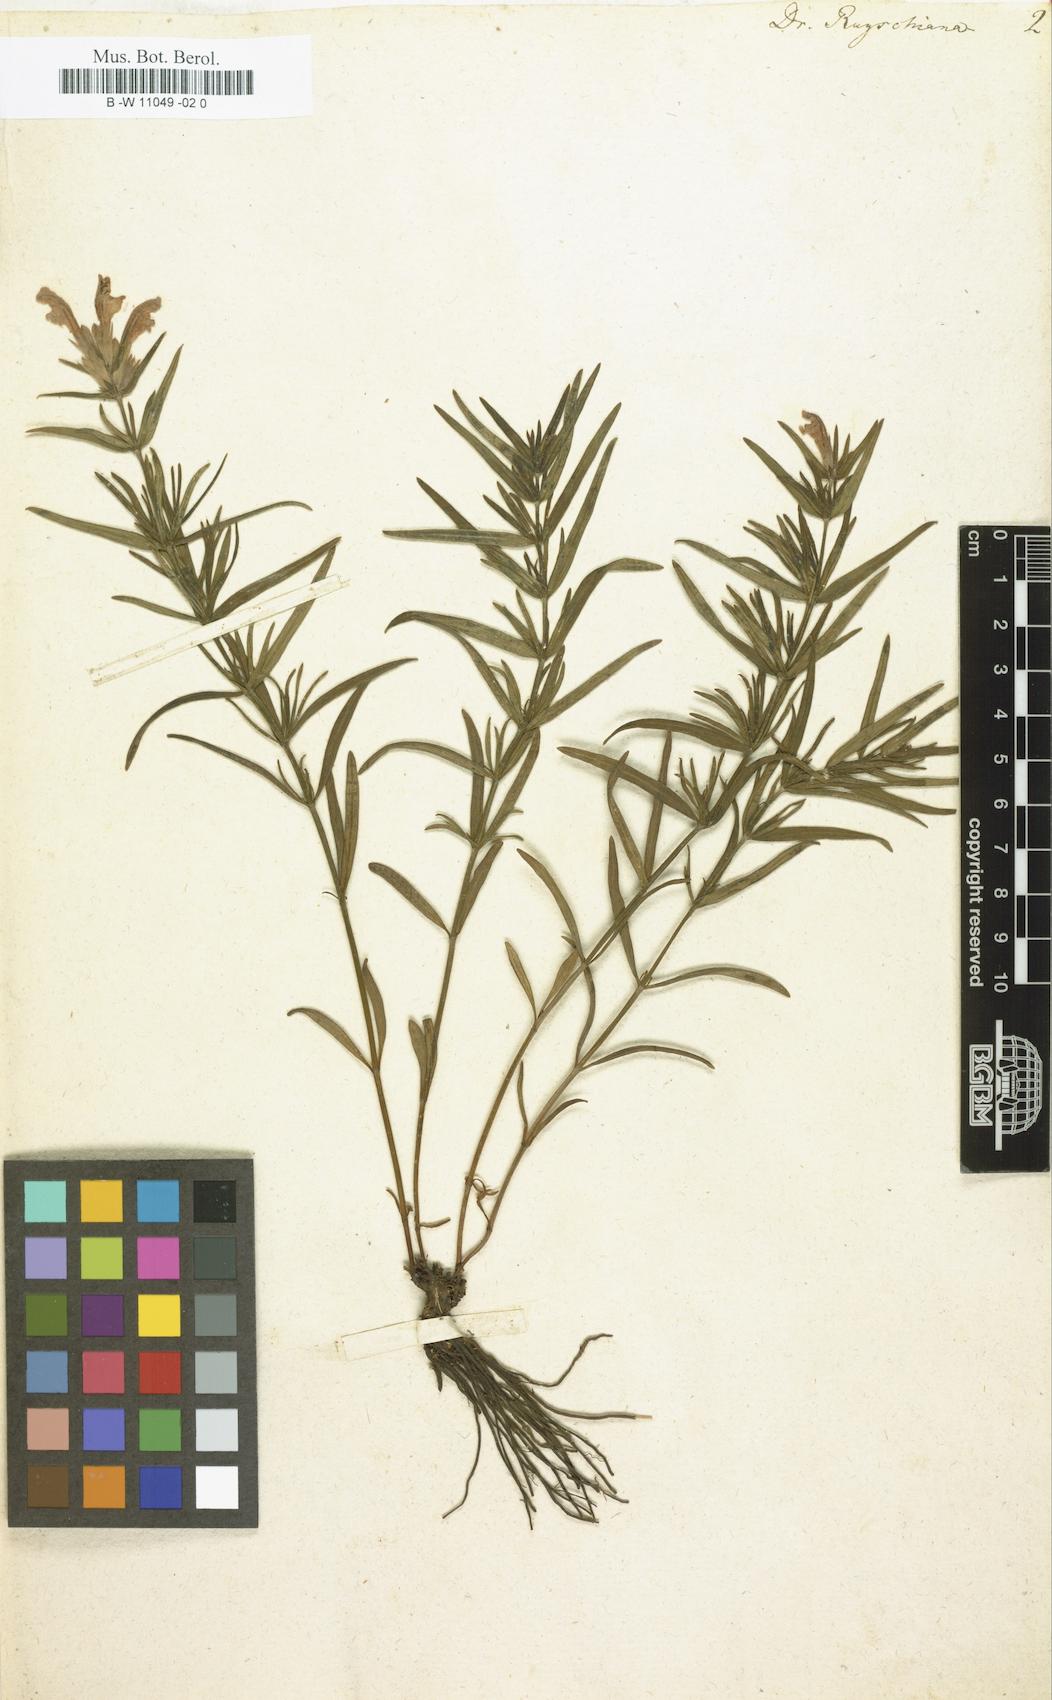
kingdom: Plantae
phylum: Tracheophyta
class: Magnoliopsida
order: Lamiales
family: Lamiaceae
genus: Dracocephalum
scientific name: Dracocephalum ruyschiana
